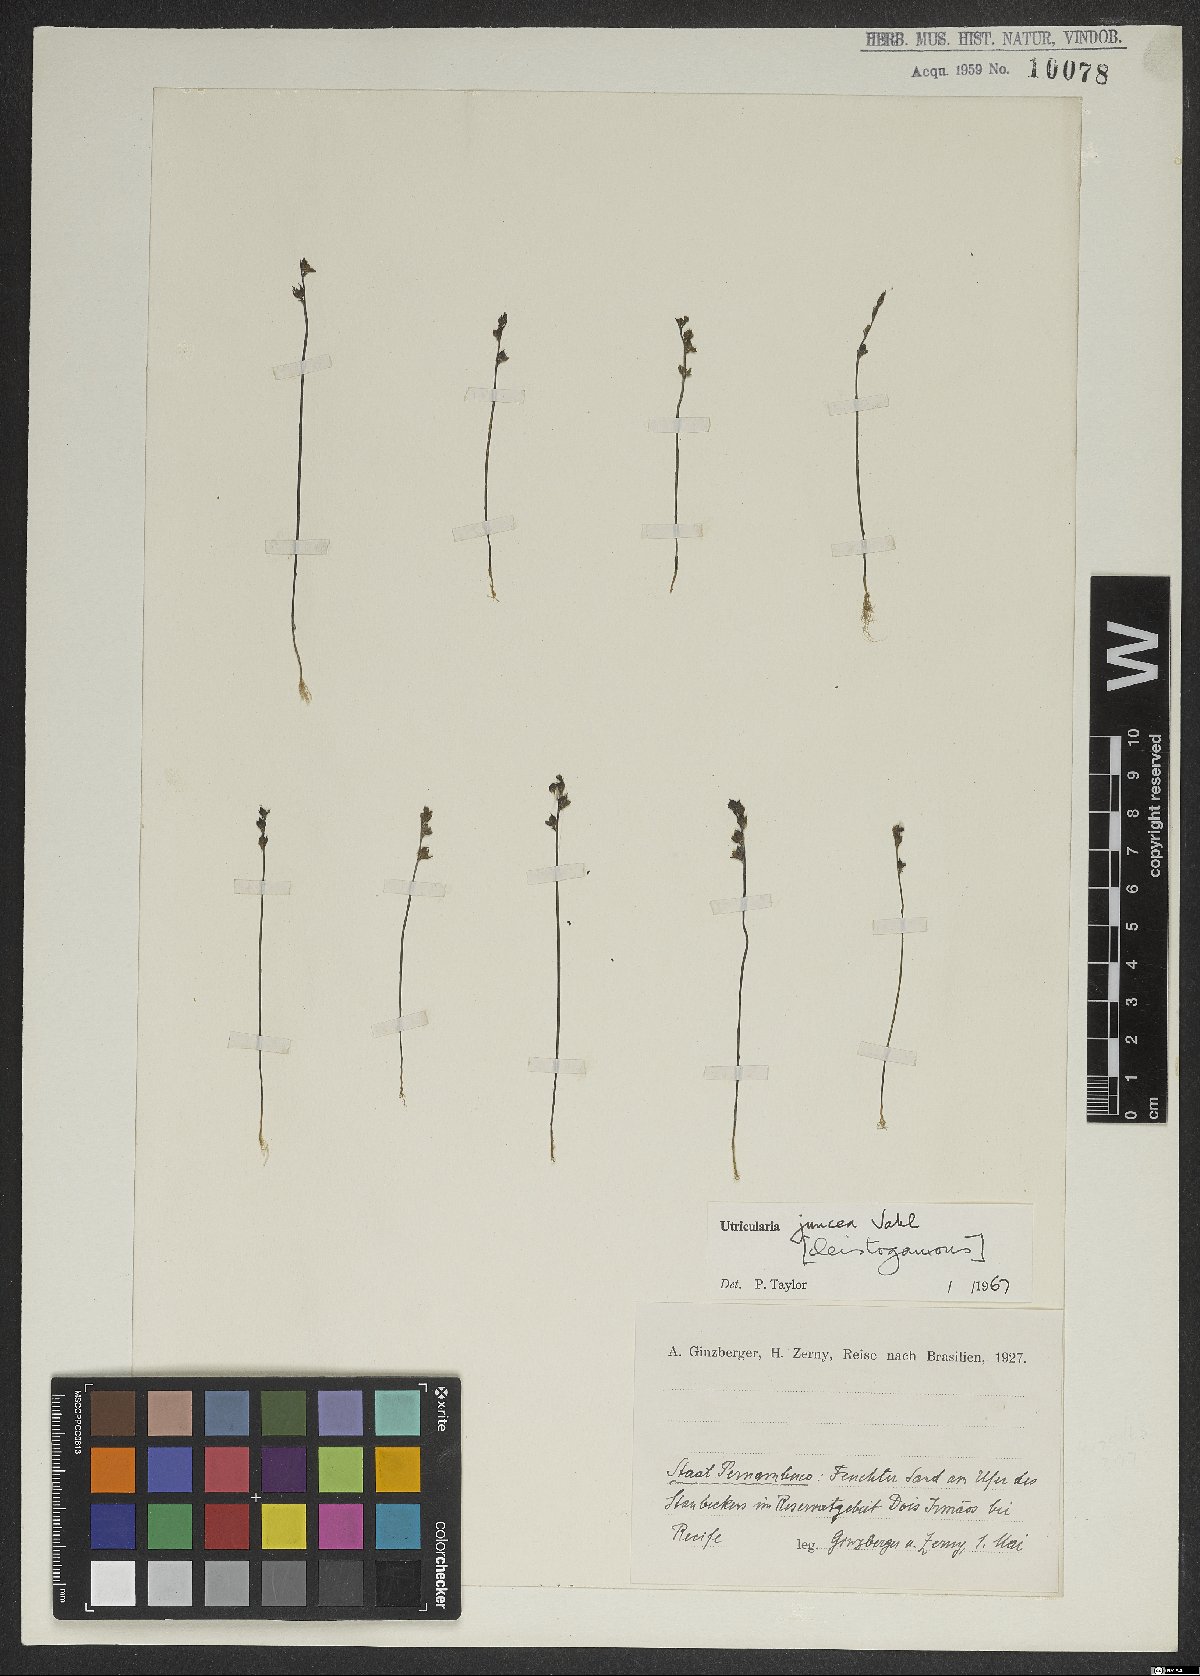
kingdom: Plantae
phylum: Tracheophyta
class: Magnoliopsida
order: Lamiales
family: Lentibulariaceae
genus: Utricularia
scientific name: Utricularia juncea
